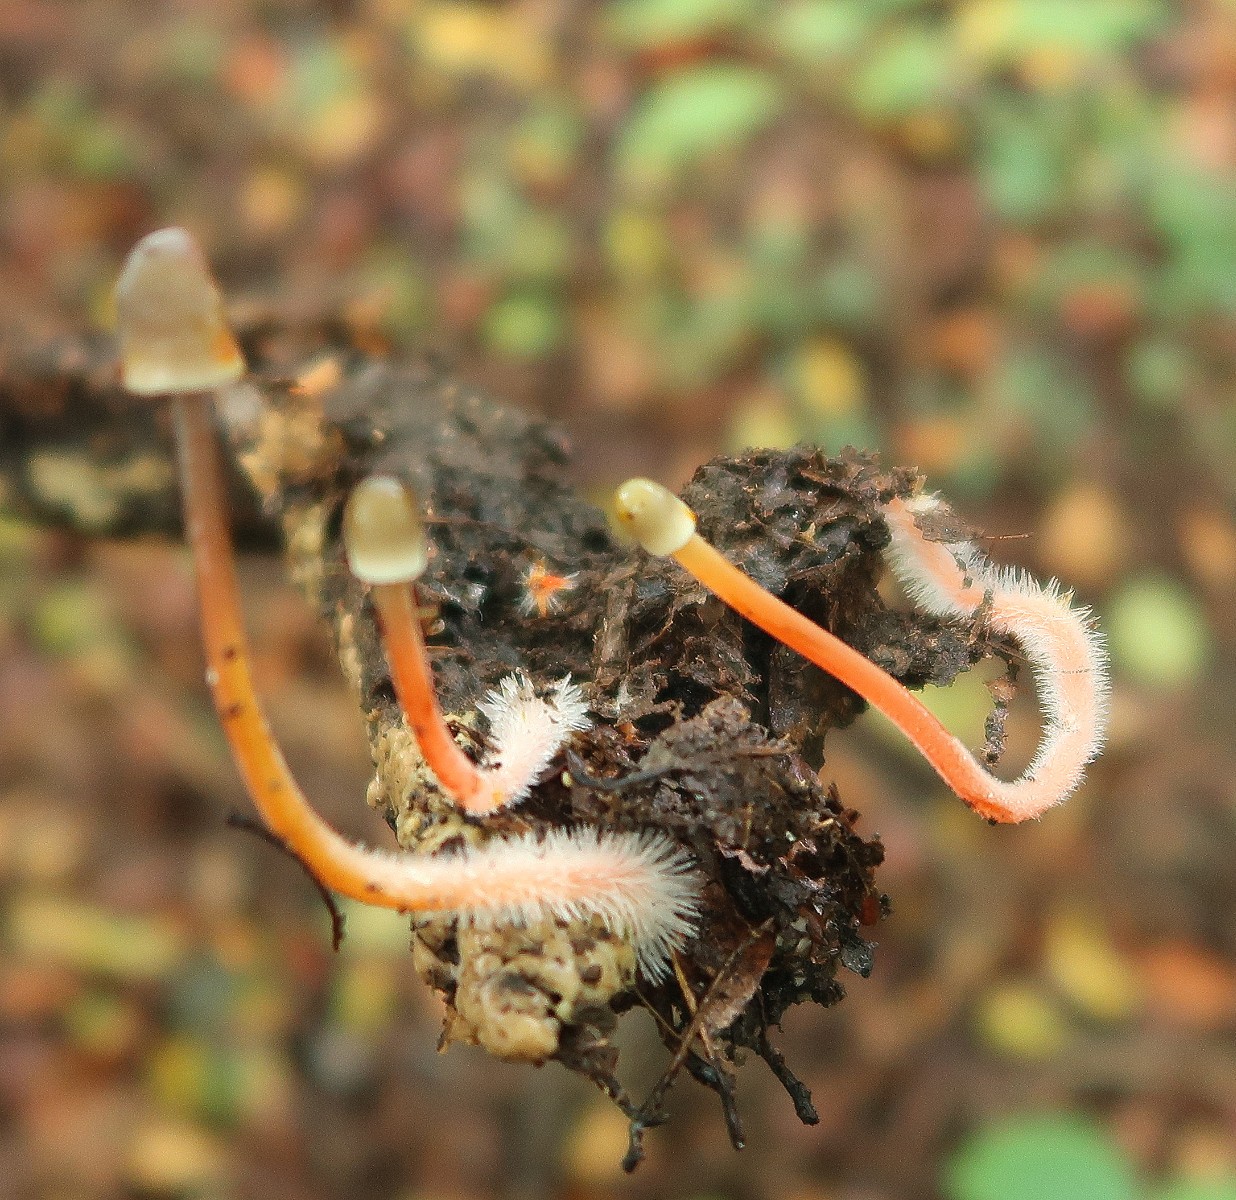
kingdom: Fungi
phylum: Basidiomycota
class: Agaricomycetes
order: Agaricales
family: Mycenaceae
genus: Mycena
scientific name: Mycena crocata
